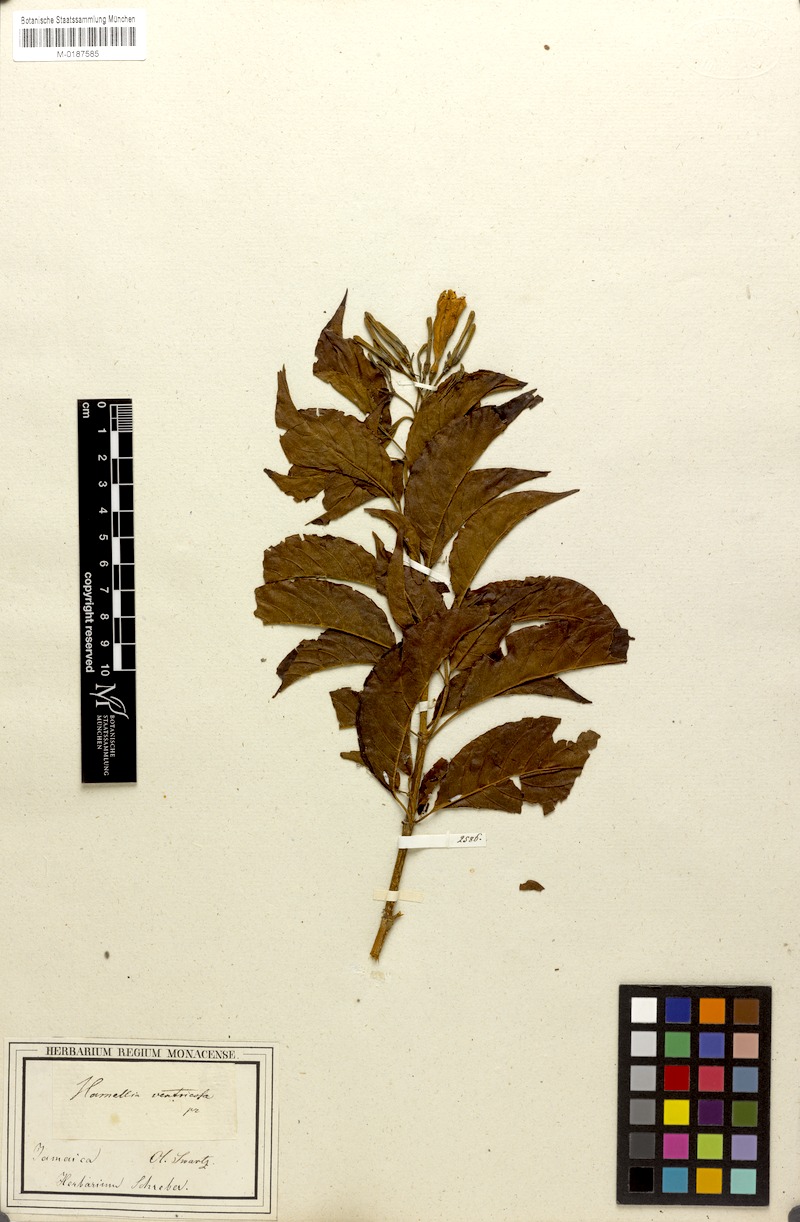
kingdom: Plantae
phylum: Tracheophyta
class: Magnoliopsida
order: Gentianales
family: Rubiaceae
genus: Hamelia
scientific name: Hamelia ventricosa
